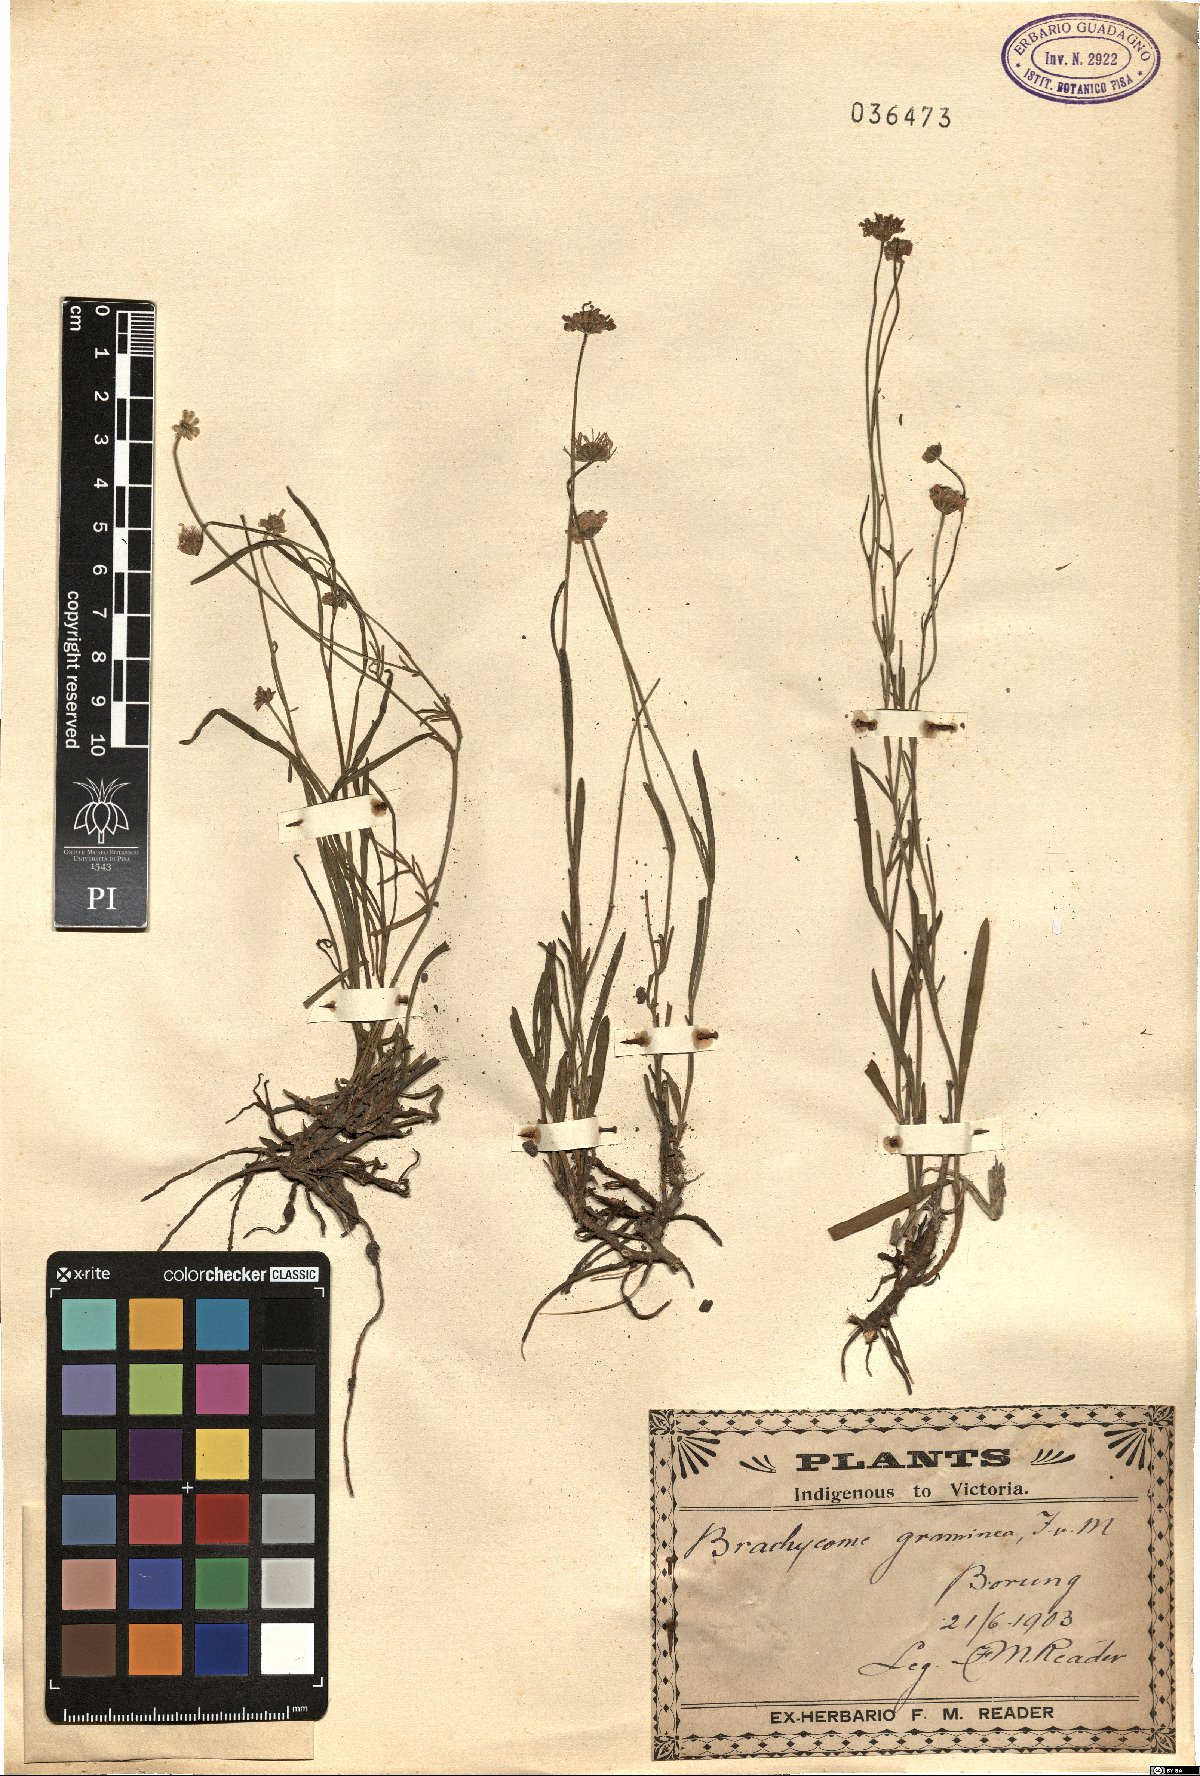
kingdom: Plantae
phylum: Tracheophyta
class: Magnoliopsida
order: Asterales
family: Asteraceae
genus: Brachyscome
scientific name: Brachyscome graminea
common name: Grass daisy
